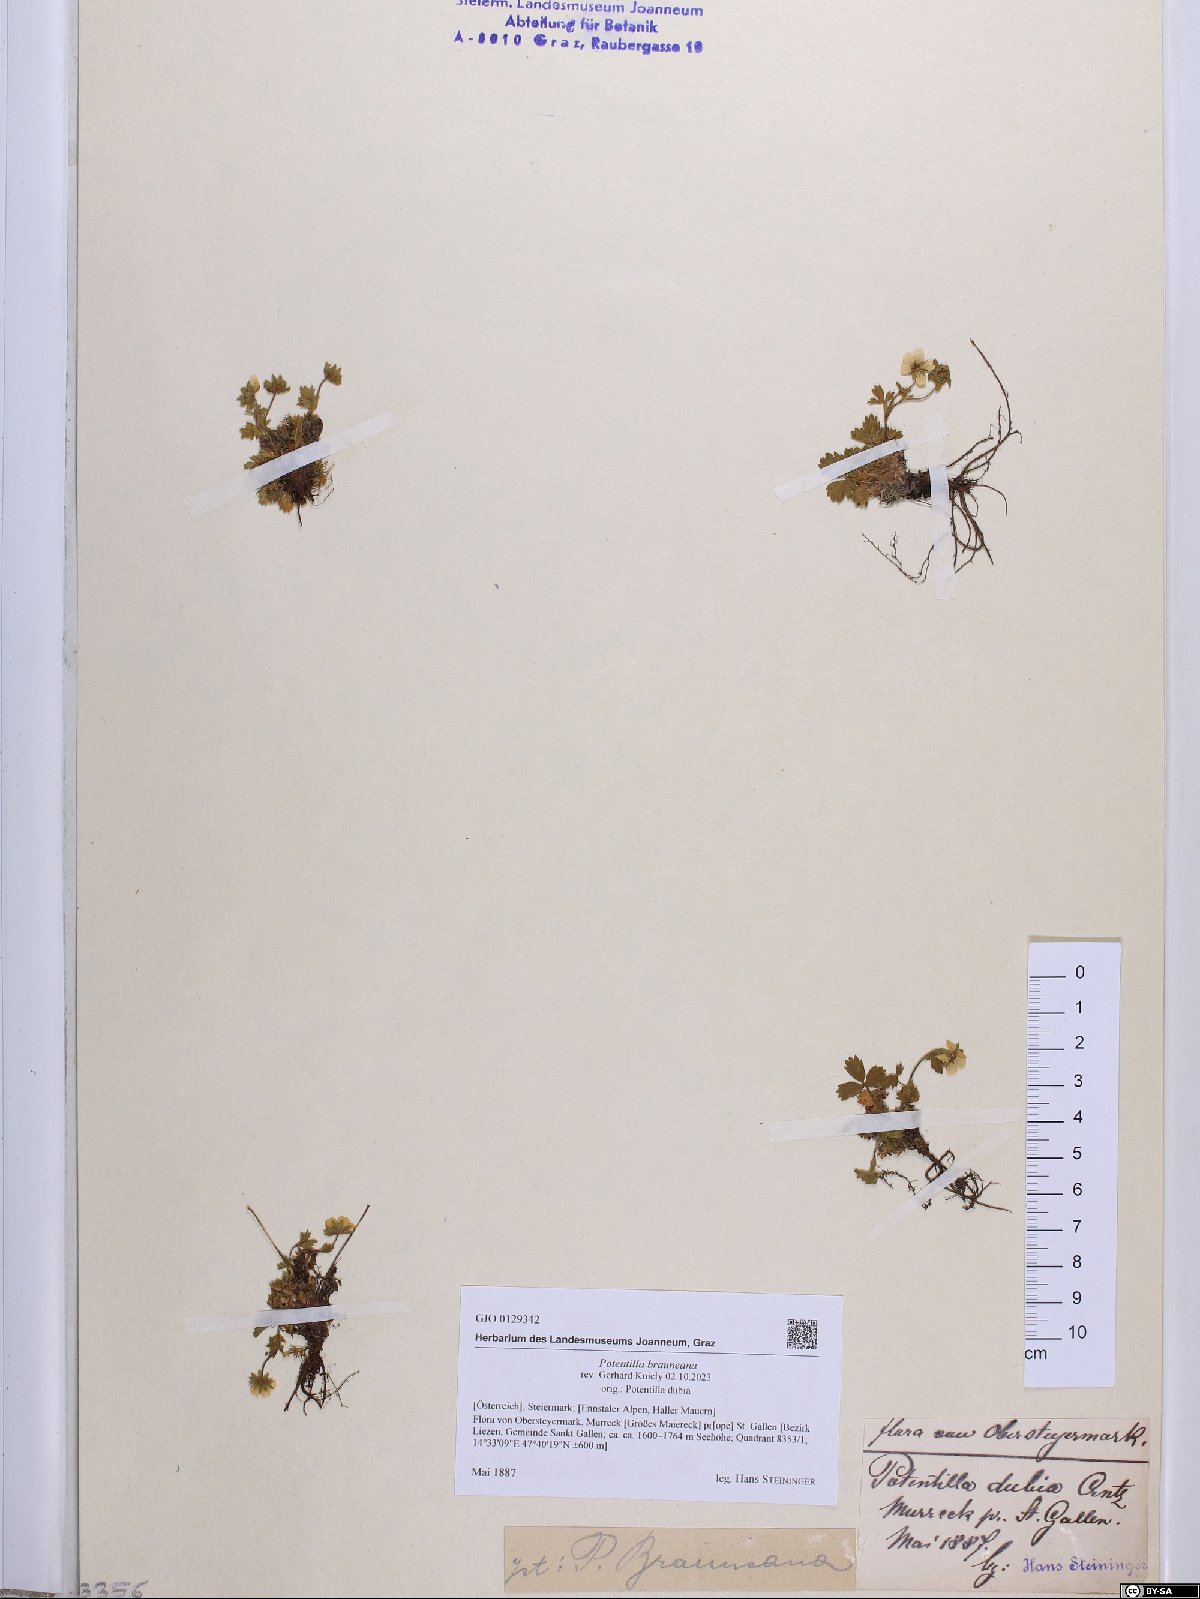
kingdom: Plantae
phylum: Tracheophyta
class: Magnoliopsida
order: Rosales
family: Rosaceae
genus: Potentilla
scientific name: Potentilla brauneana
